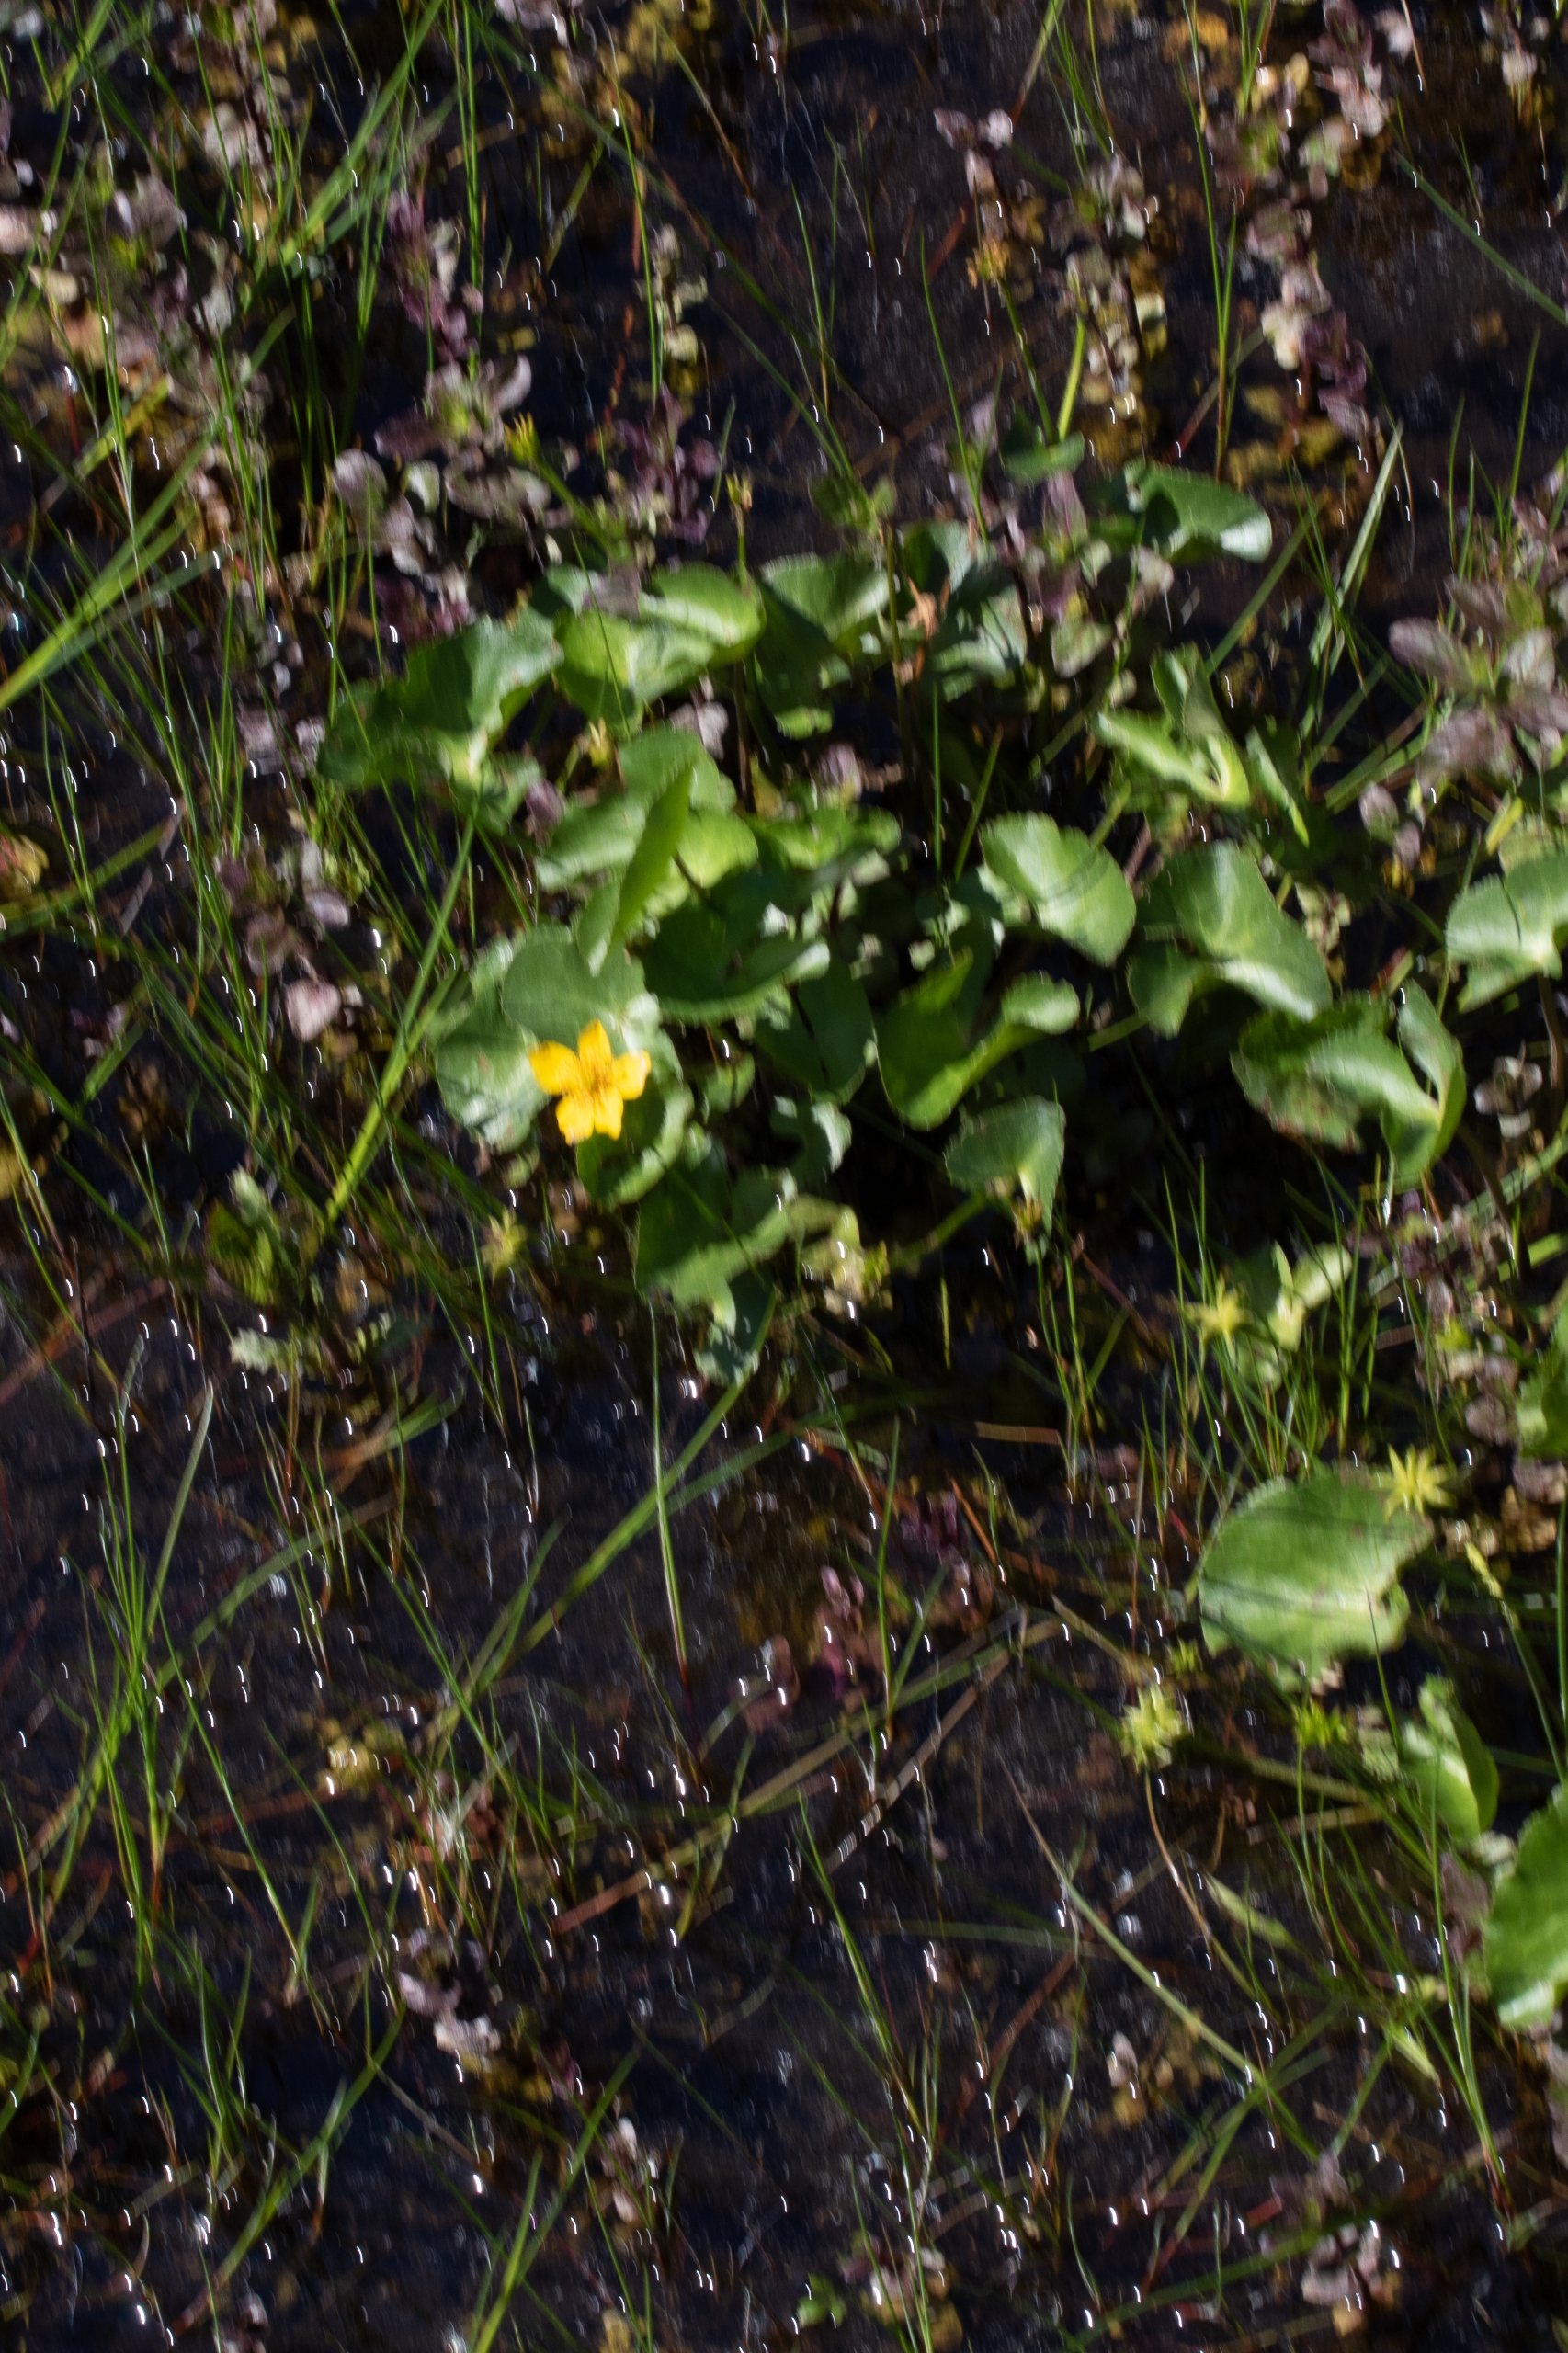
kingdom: Plantae
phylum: Tracheophyta
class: Magnoliopsida
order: Ranunculales
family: Ranunculaceae
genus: Caltha
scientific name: Caltha palustris
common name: Eng-kabbeleje
